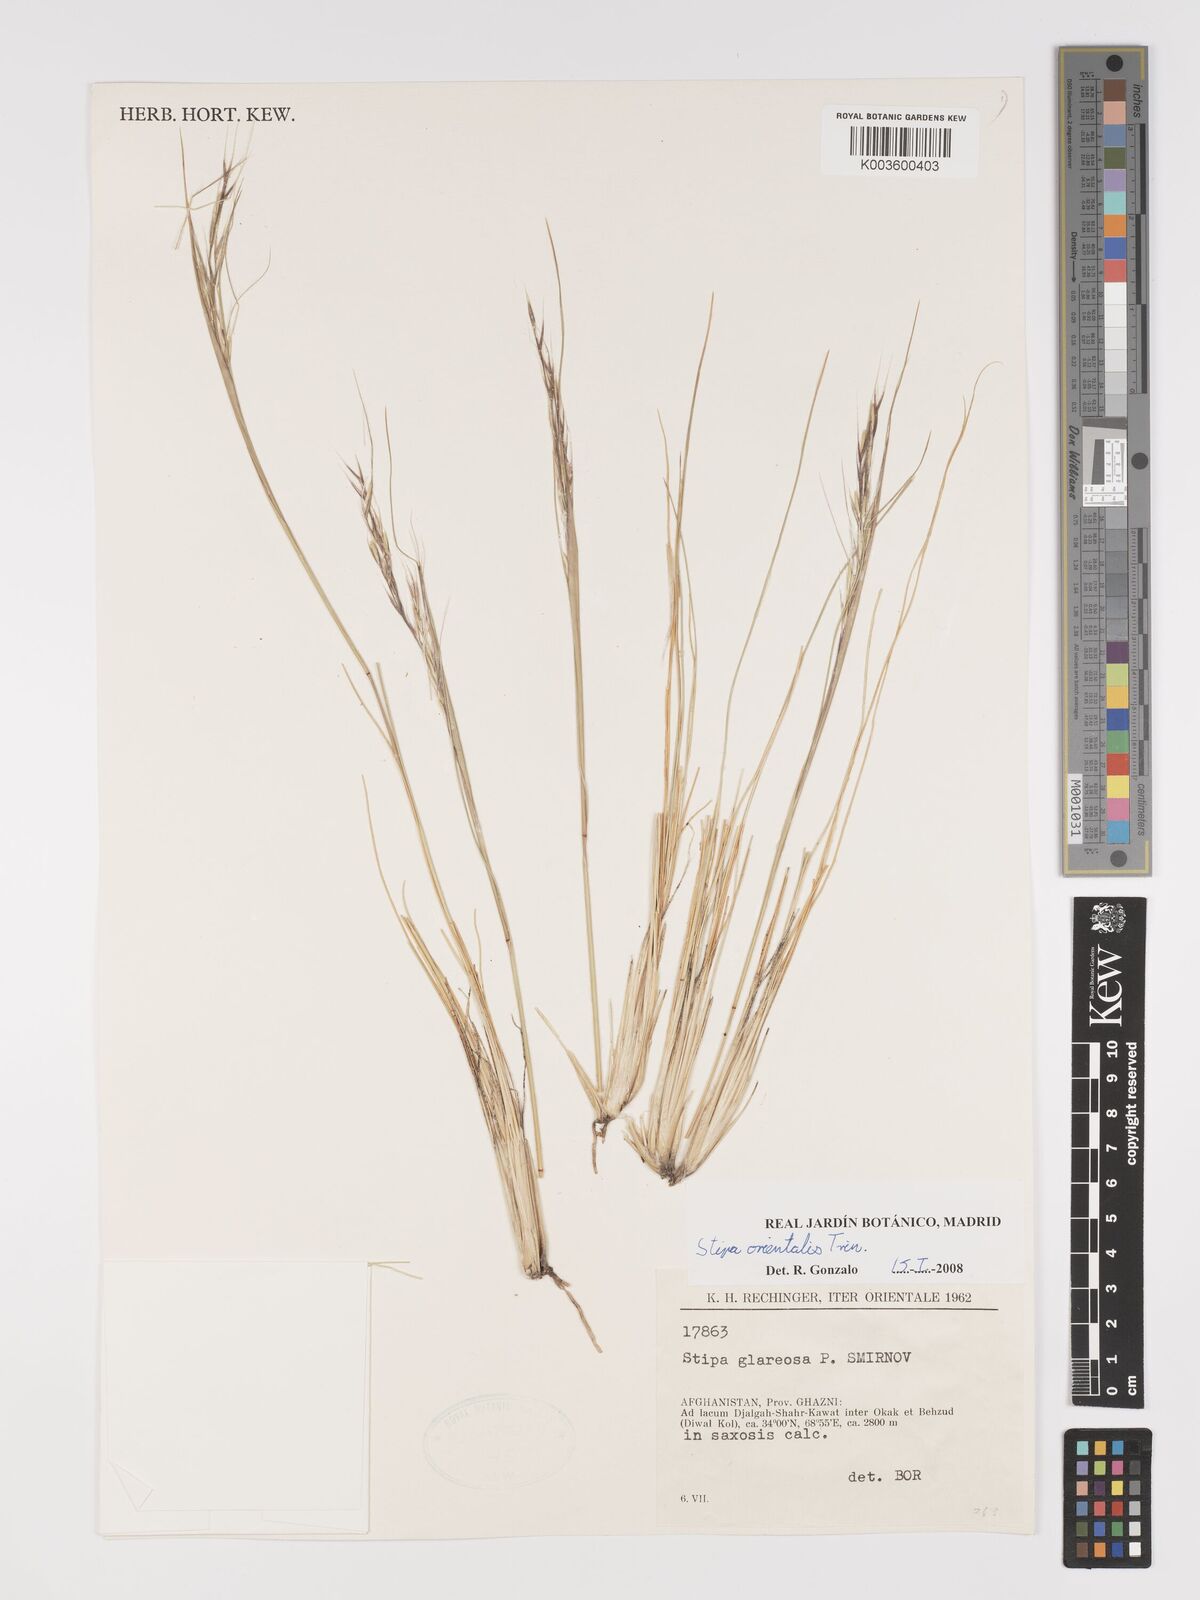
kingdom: Plantae
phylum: Tracheophyta
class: Liliopsida
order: Poales
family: Poaceae
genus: Stipa
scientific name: Stipa orientalis
